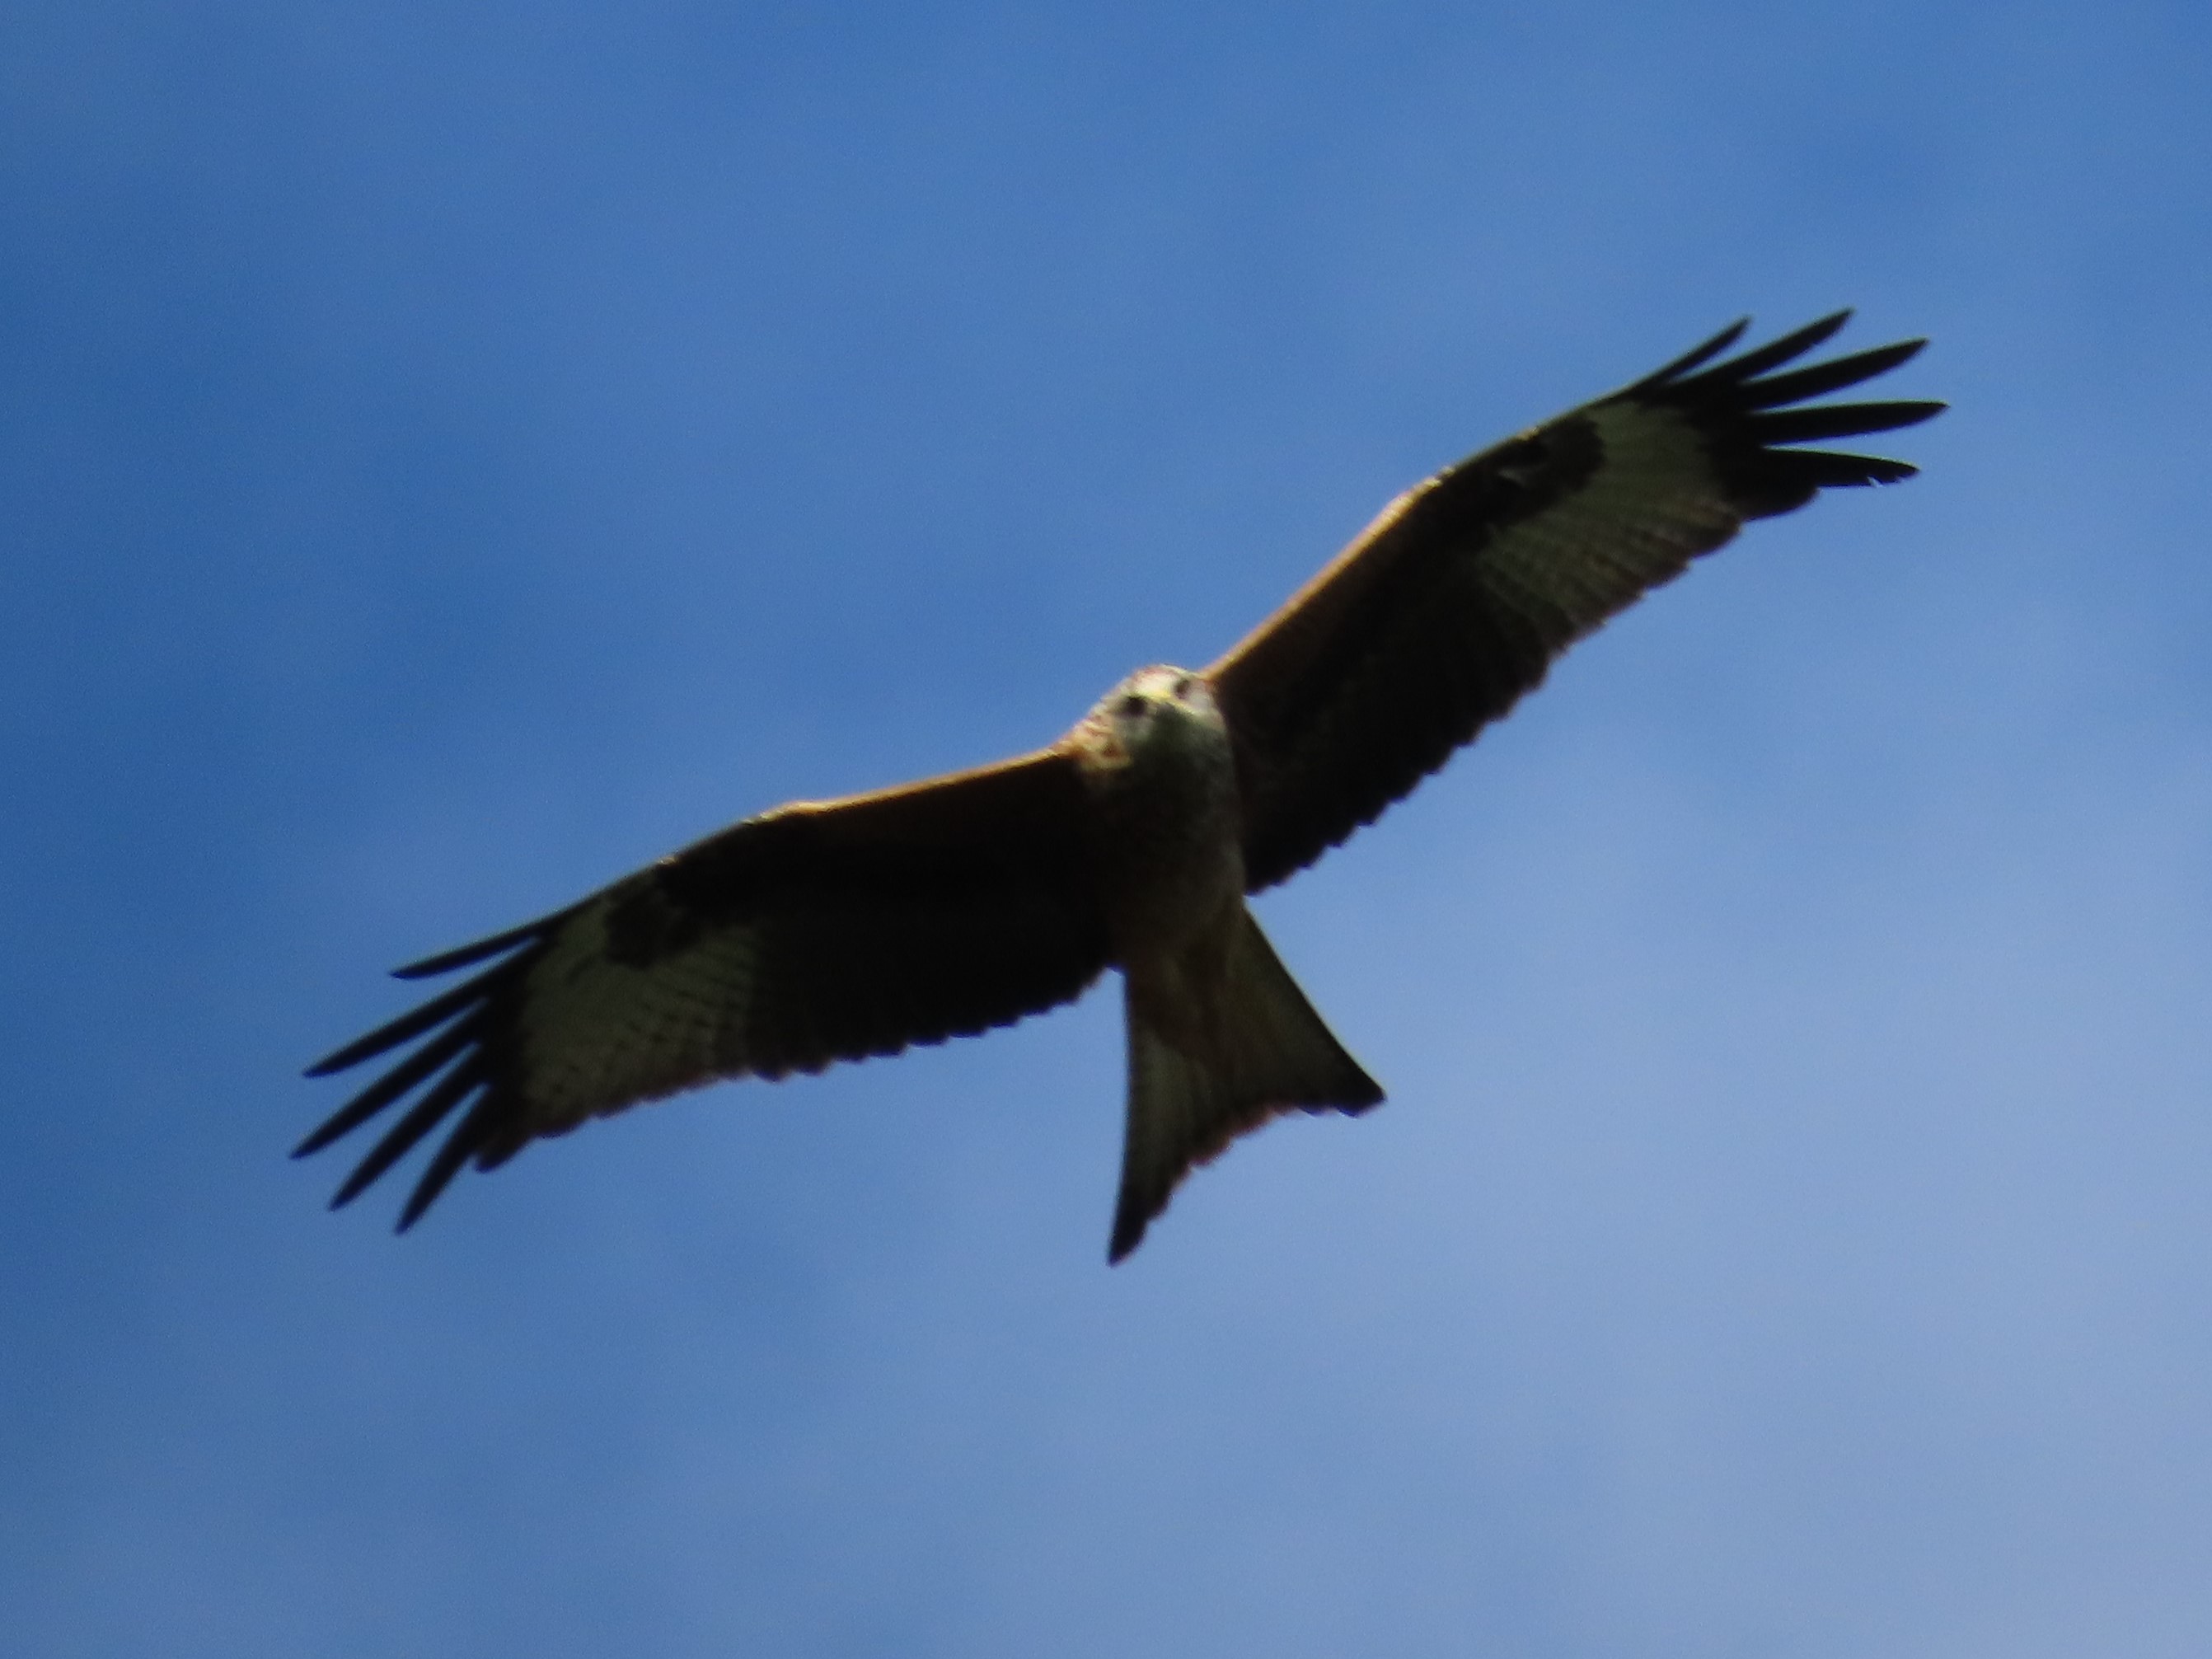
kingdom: Animalia
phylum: Chordata
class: Aves
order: Accipitriformes
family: Accipitridae
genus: Milvus
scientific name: Milvus milvus
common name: Rød glente
